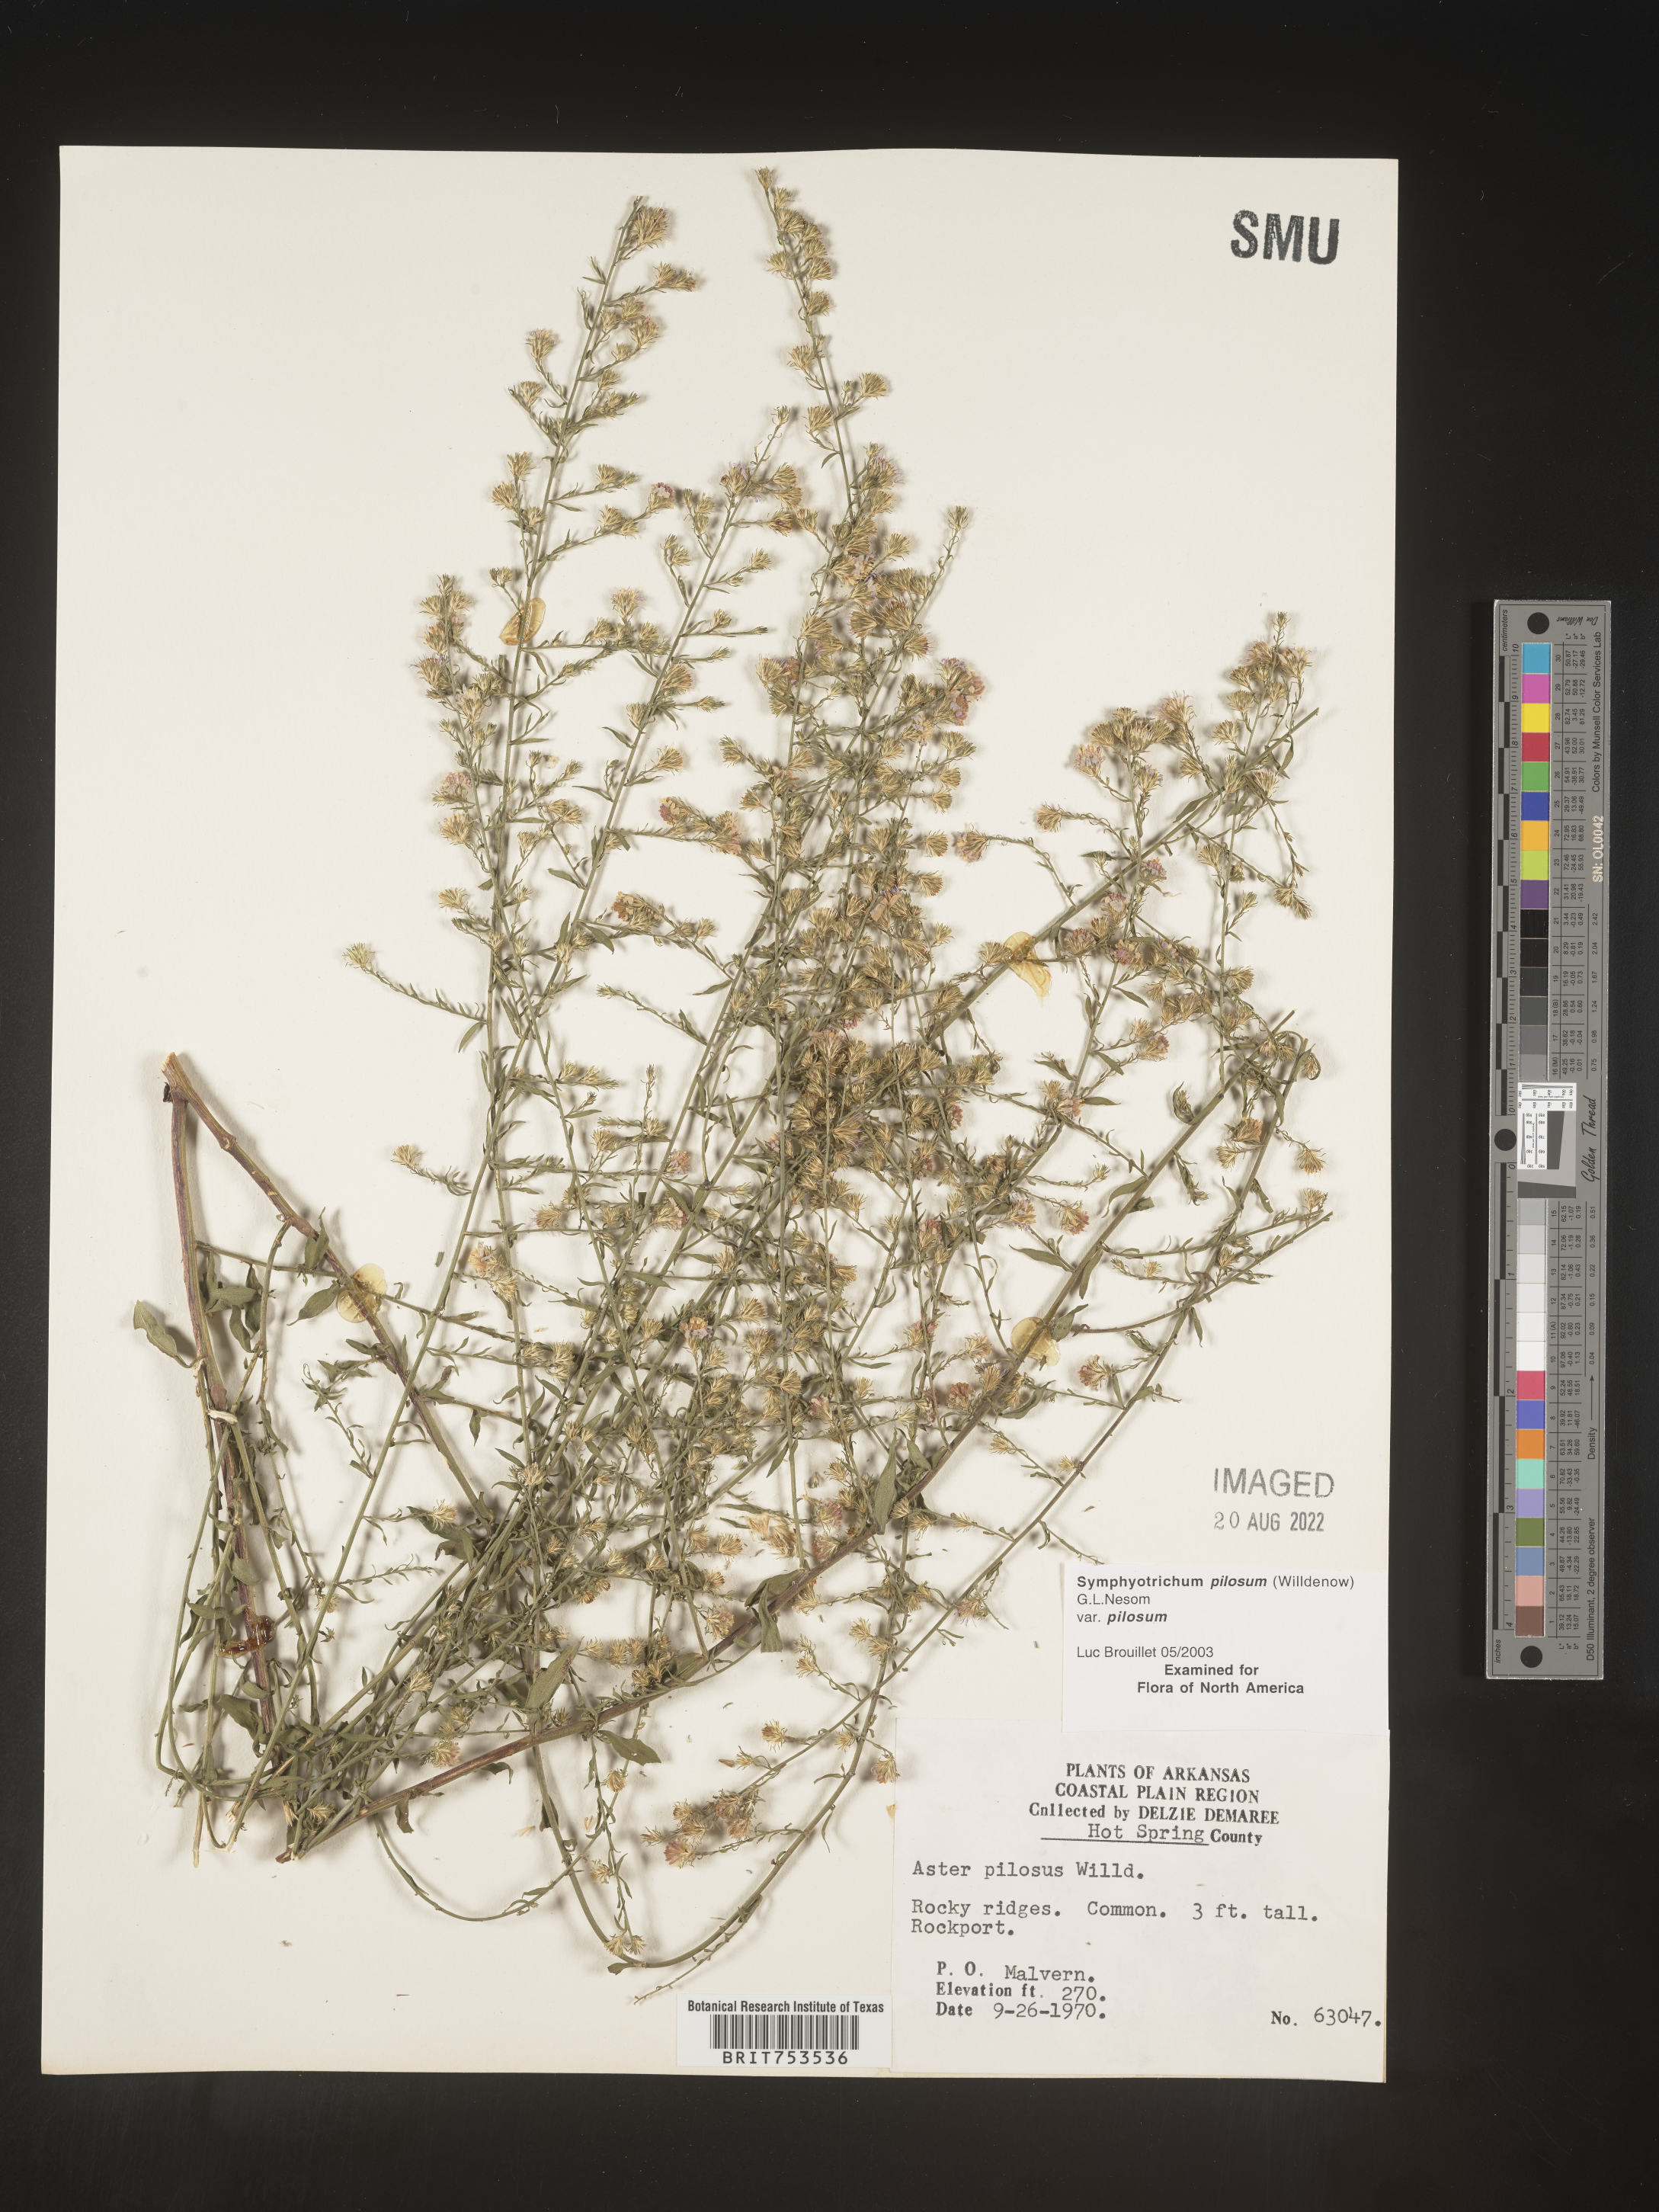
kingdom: Plantae
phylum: Tracheophyta
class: Magnoliopsida
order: Asterales
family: Asteraceae
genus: Symphyotrichum
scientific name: Symphyotrichum pilosum
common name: Awl aster
